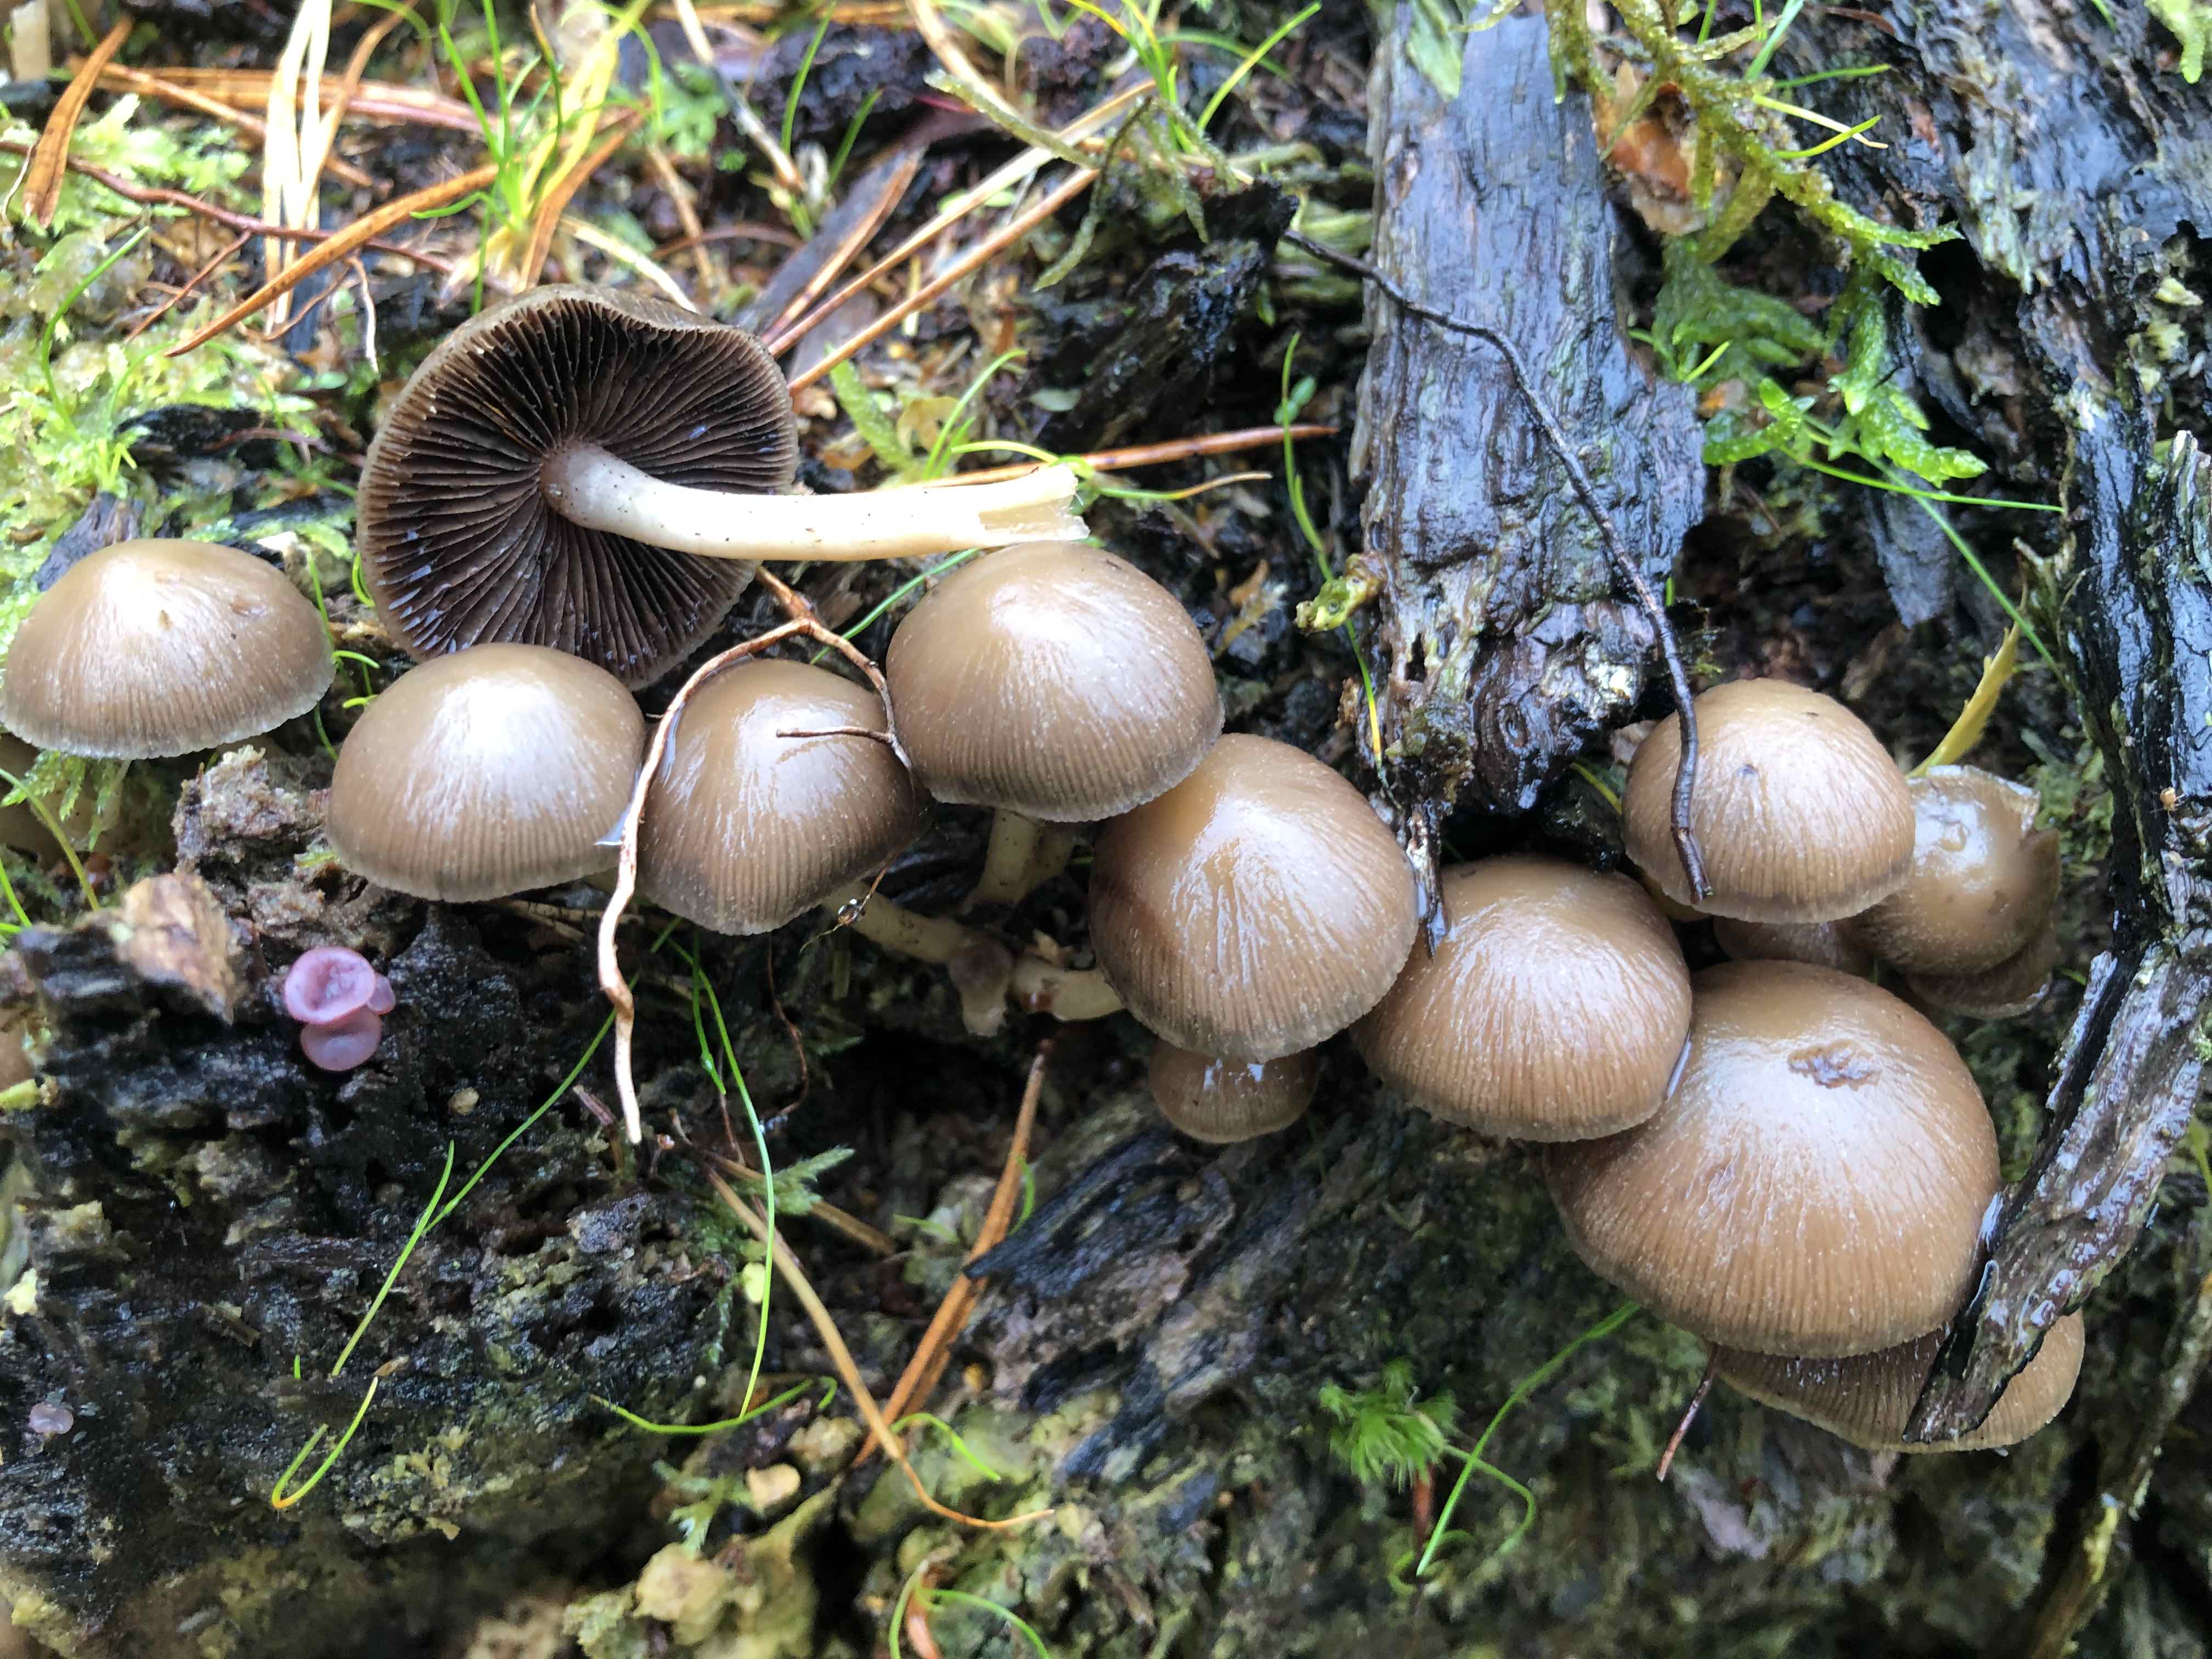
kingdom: Fungi
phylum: Basidiomycota
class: Agaricomycetes
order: Agaricales
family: Psathyrellaceae
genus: Psathyrella
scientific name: Psathyrella piluliformis
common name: lysstokket mørkhat
